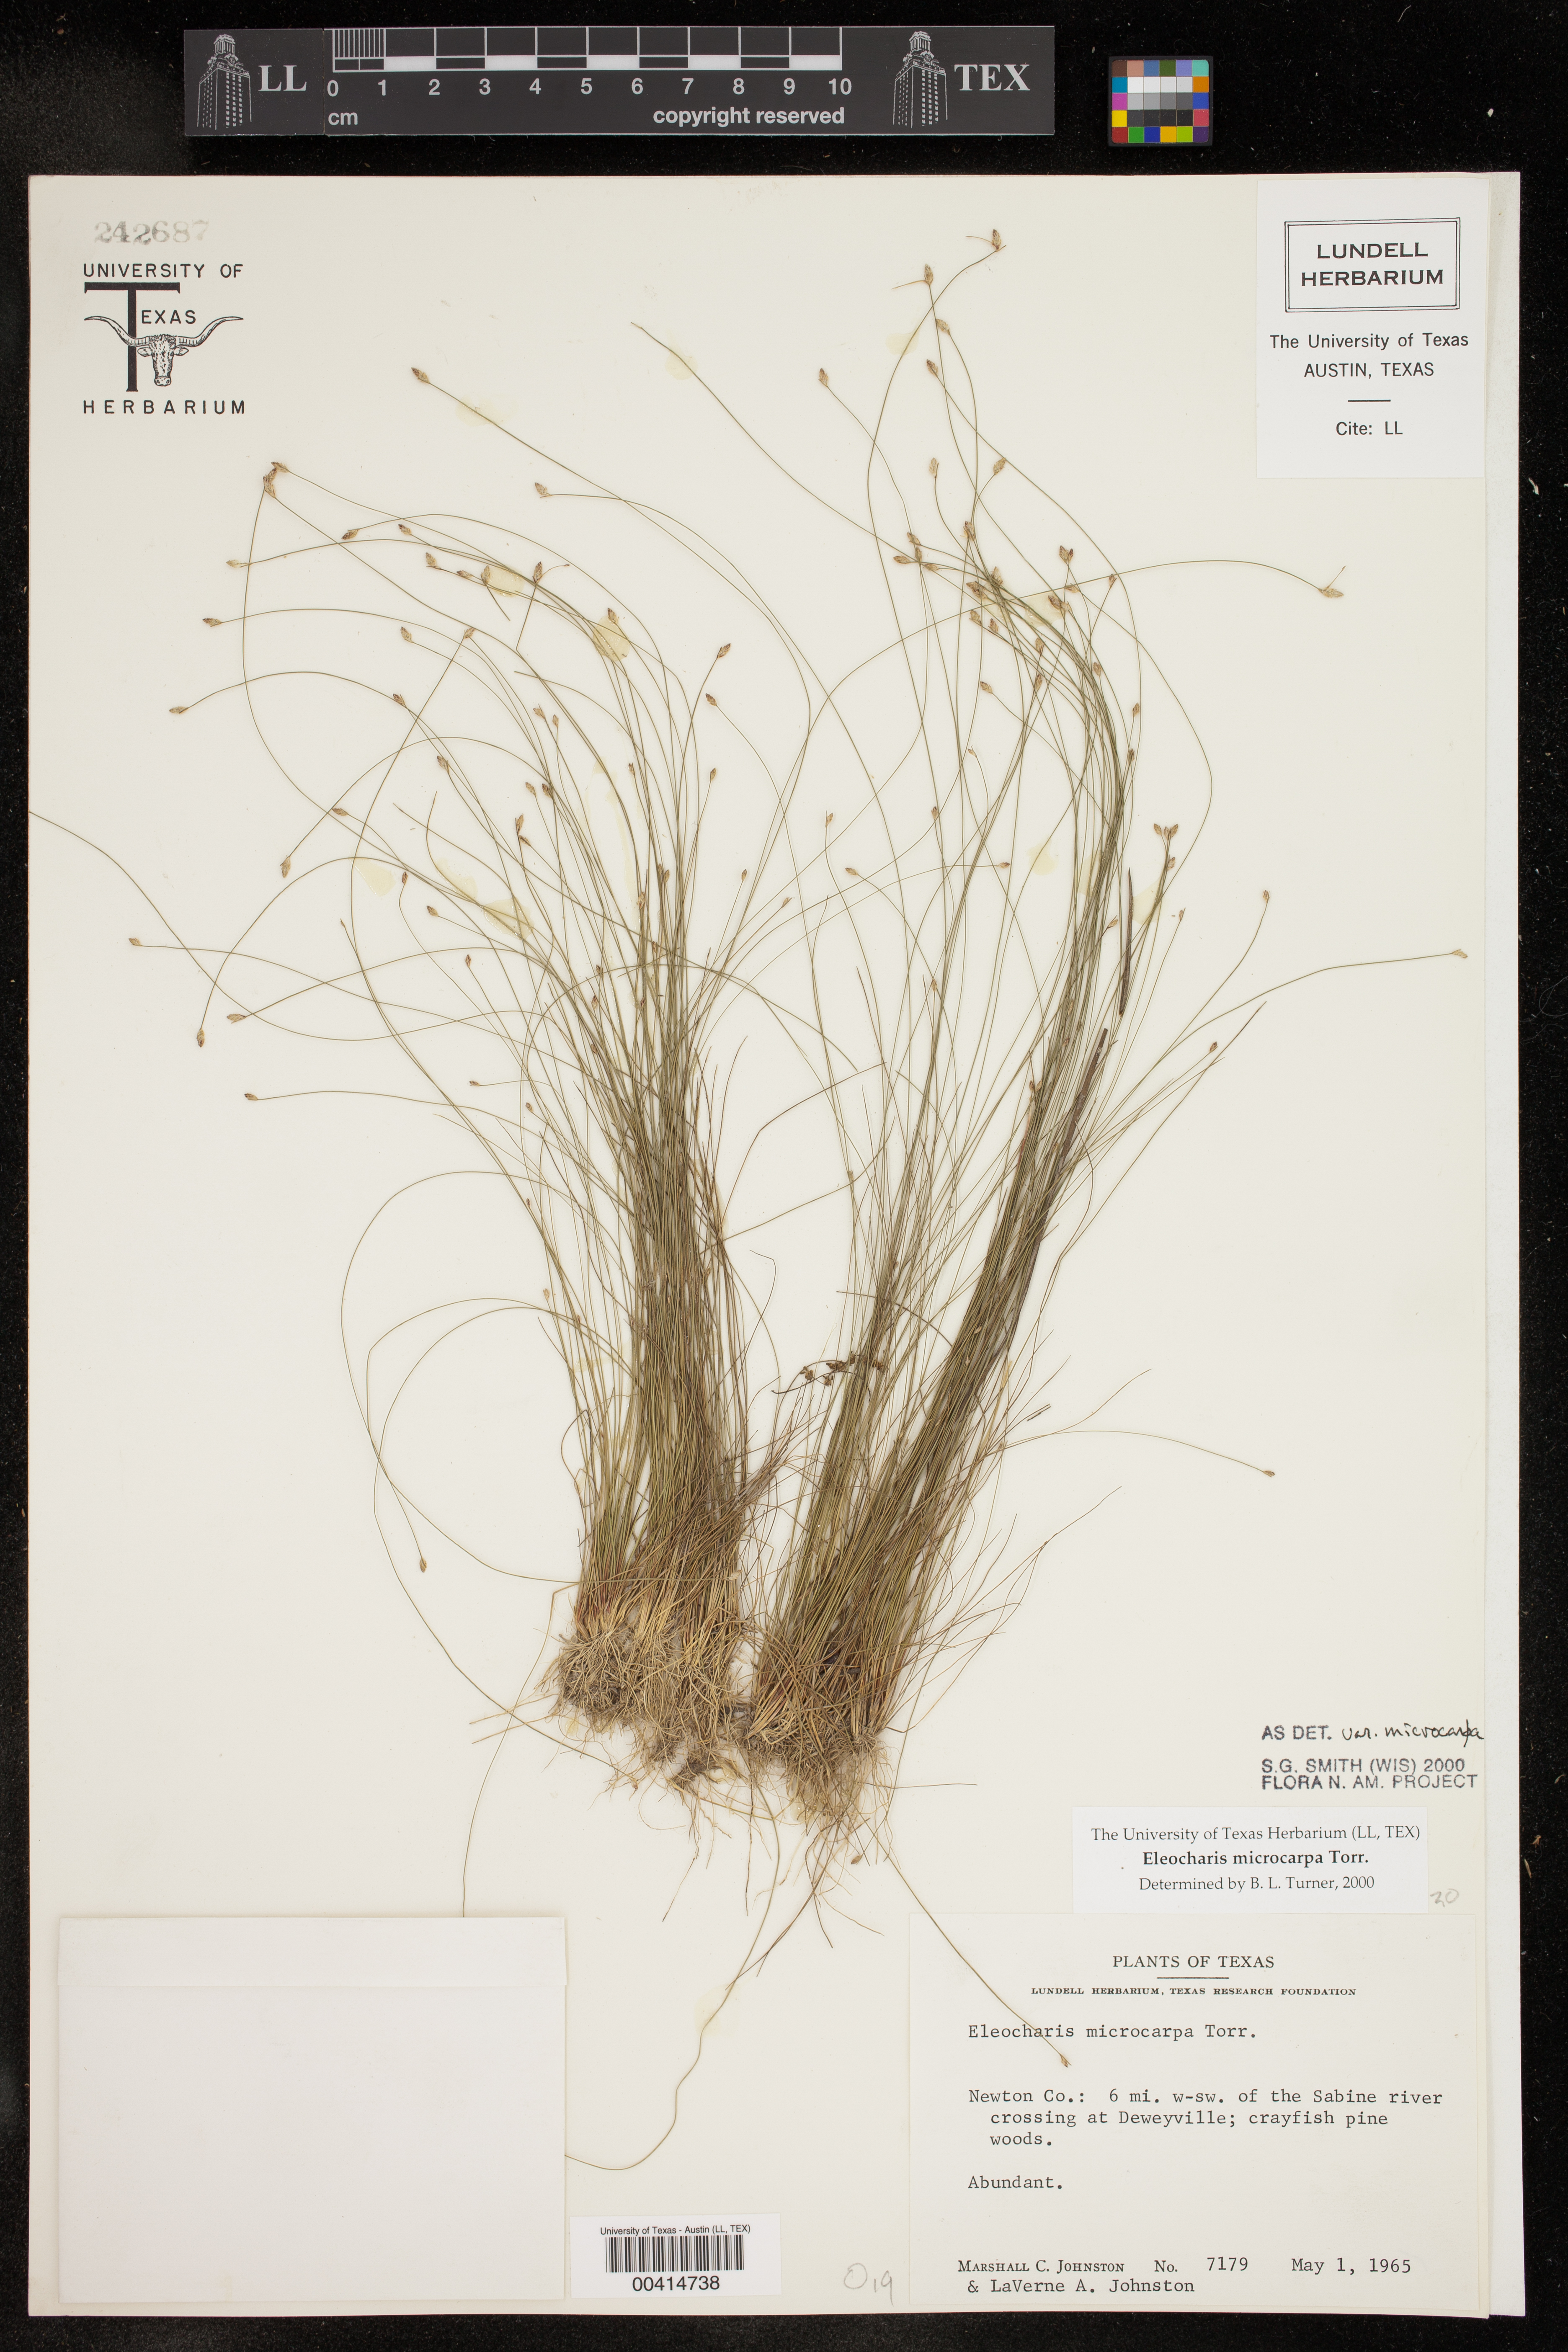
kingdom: Plantae
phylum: Tracheophyta
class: Liliopsida
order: Poales
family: Cyperaceae
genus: Eleocharis
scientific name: Eleocharis microcarpa
